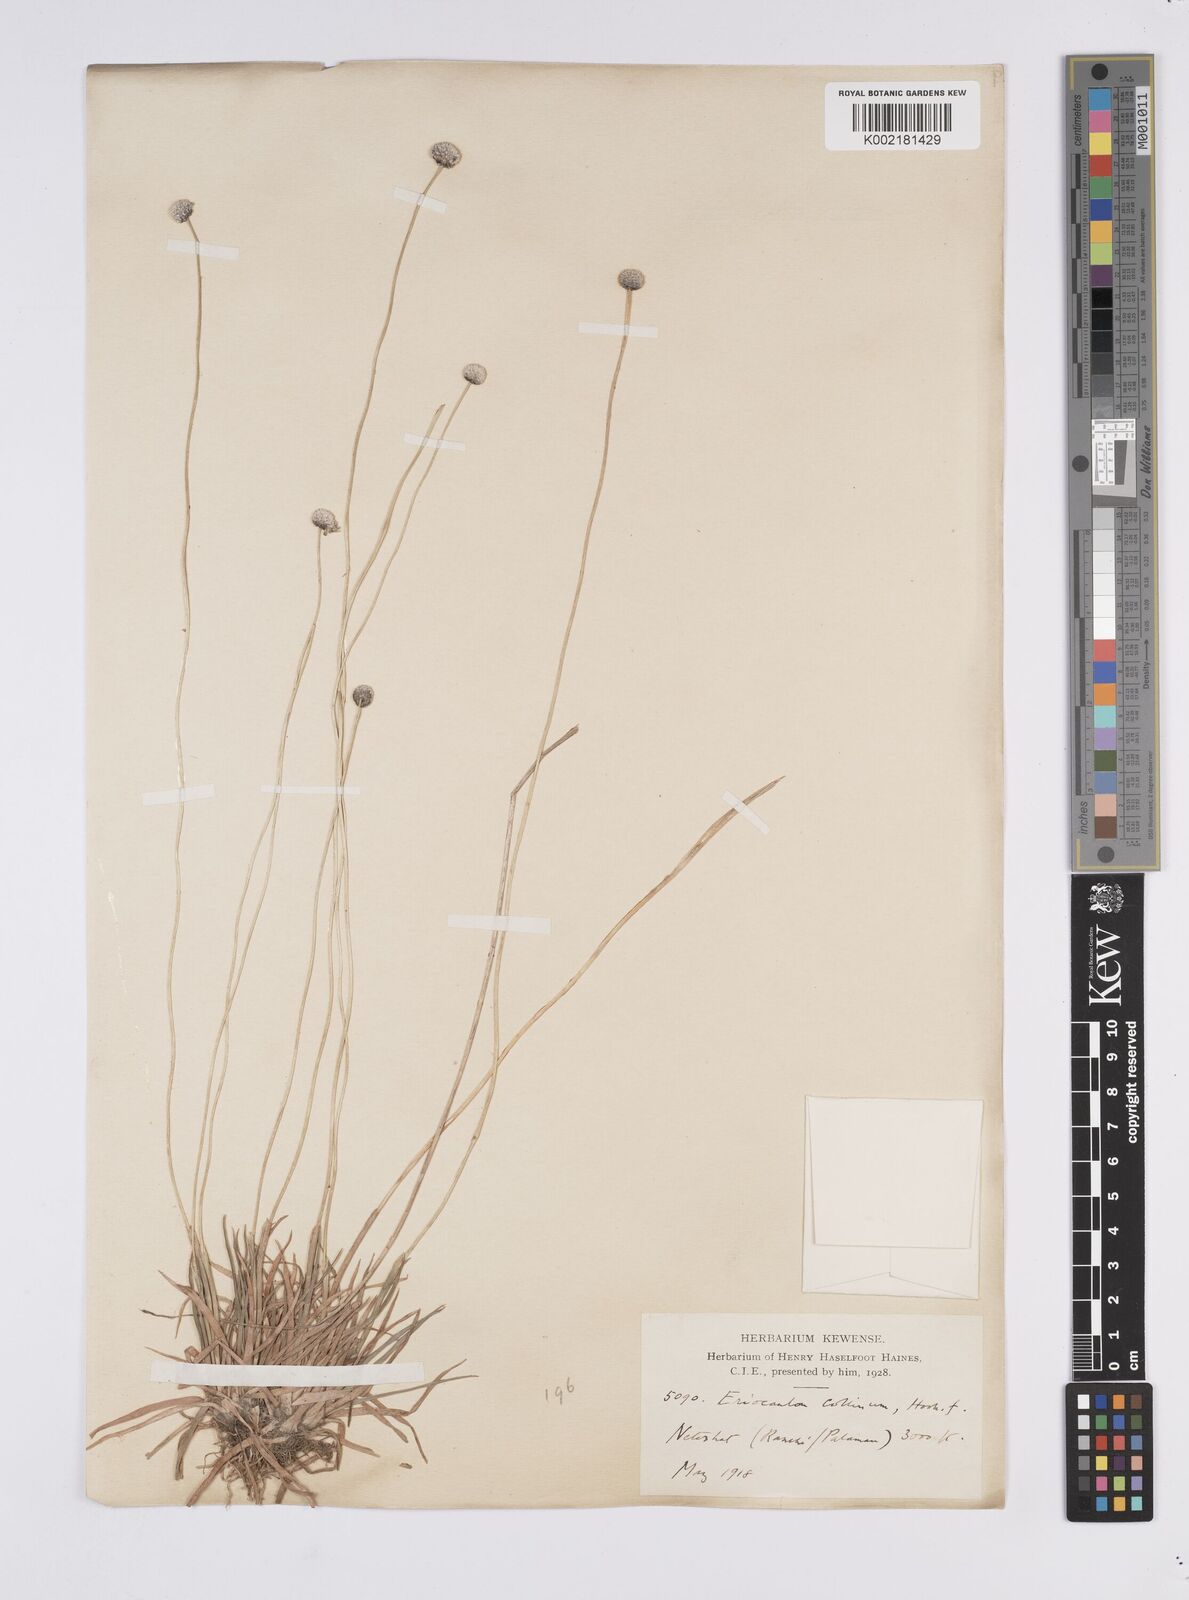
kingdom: Plantae
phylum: Tracheophyta
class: Liliopsida
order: Poales
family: Eriocaulaceae
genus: Eriocaulon
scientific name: Eriocaulon odoratum
